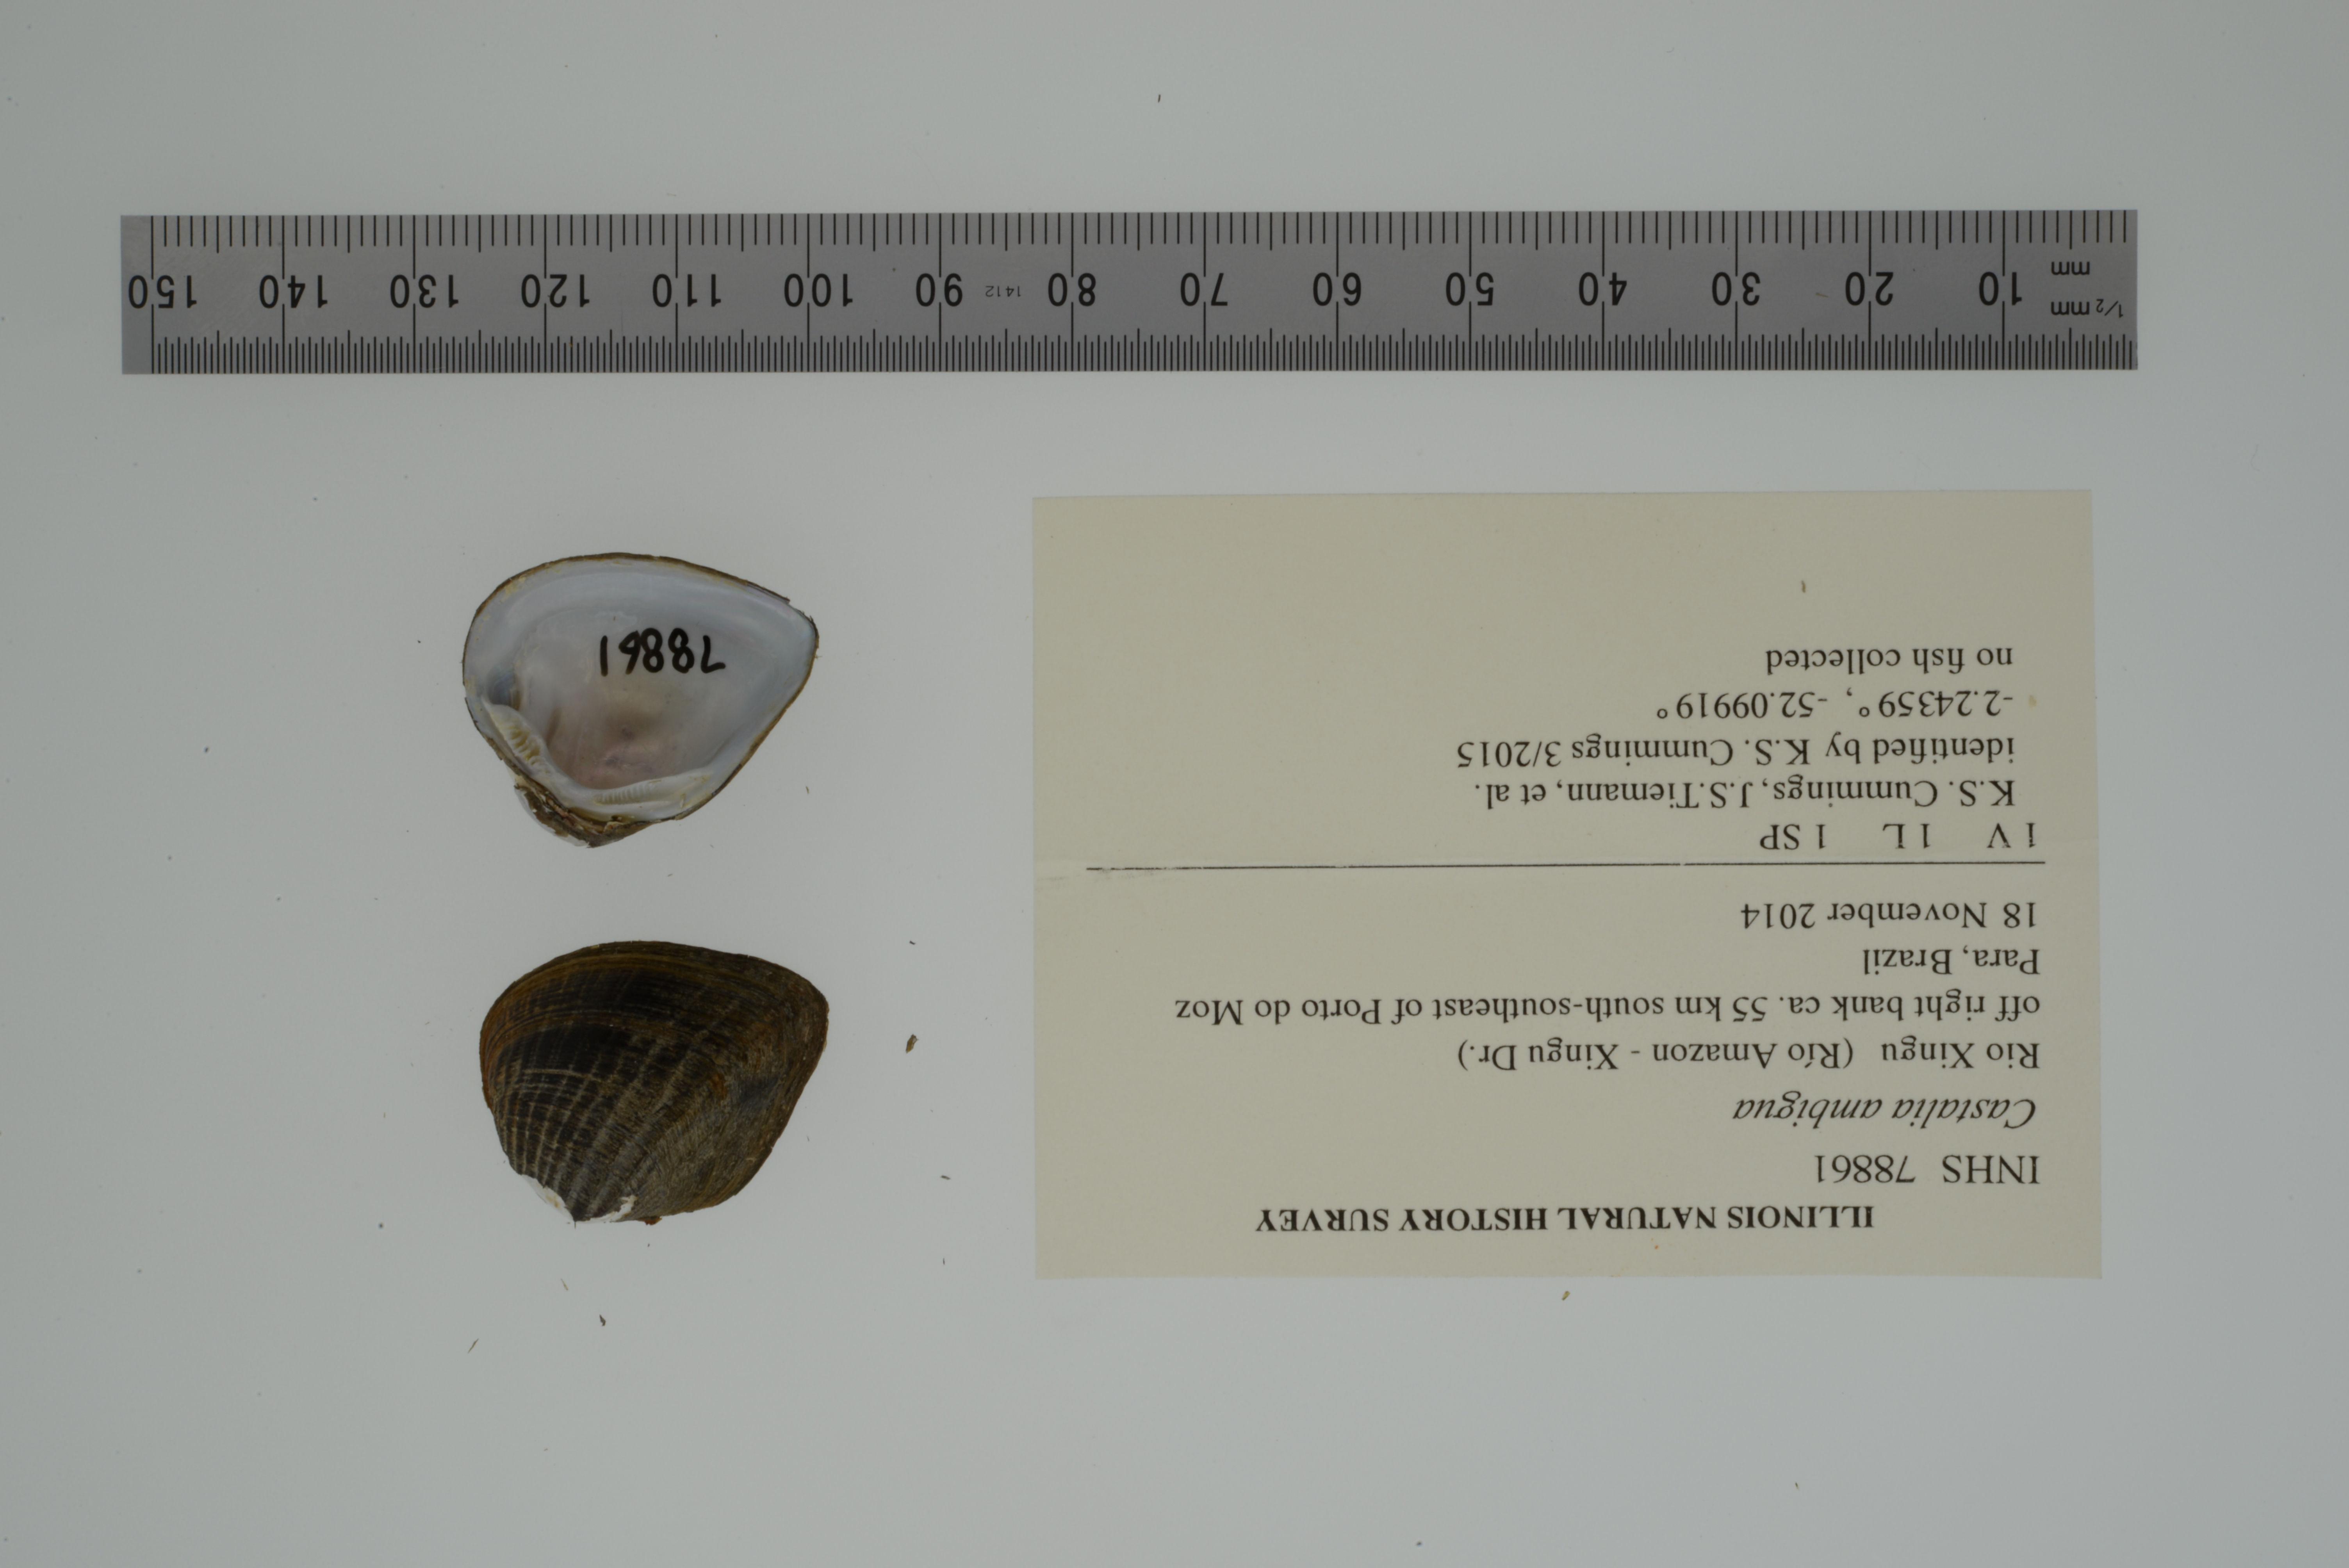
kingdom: Animalia
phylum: Mollusca
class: Bivalvia
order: Unionida
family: Hyriidae
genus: Castalia
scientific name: Castalia ambigua
